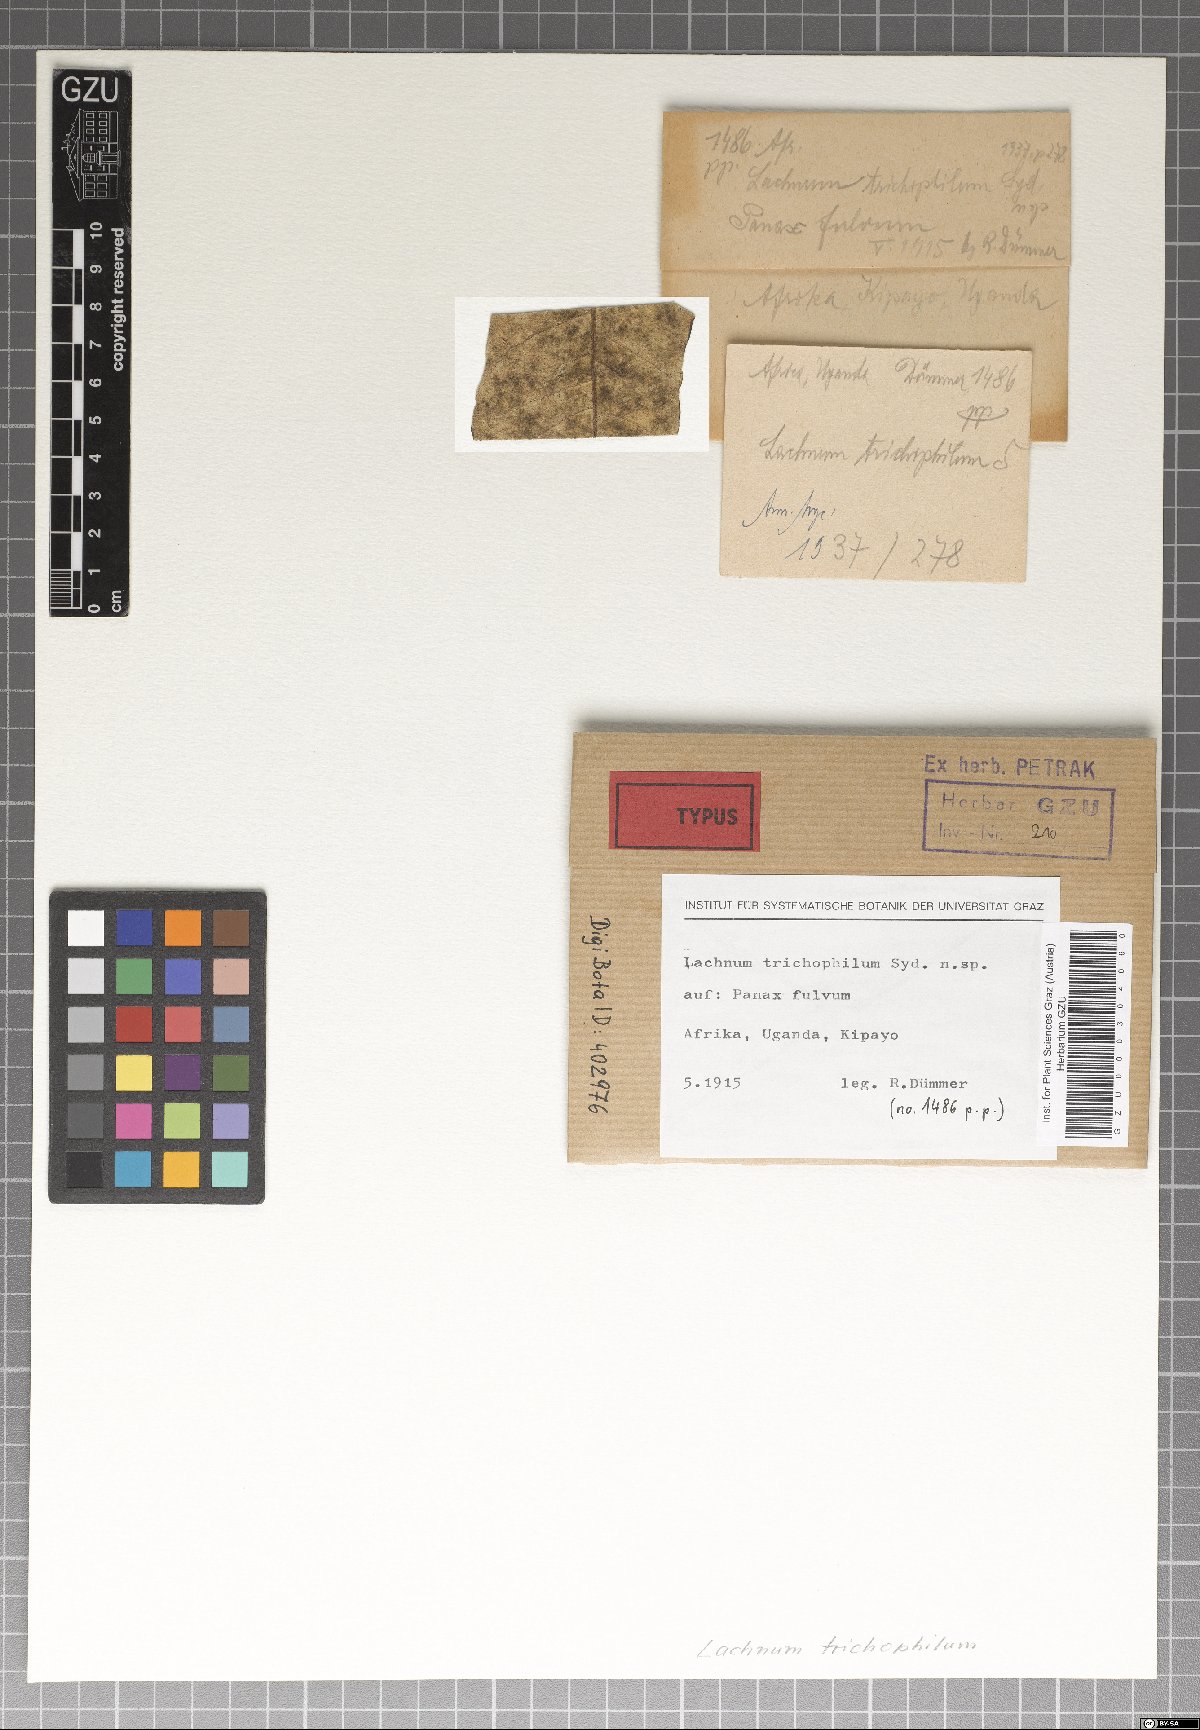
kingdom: Fungi
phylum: Ascomycota
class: Leotiomycetes
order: Helotiales
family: Lachnaceae
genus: Lachnum
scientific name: Lachnum trichophilum
